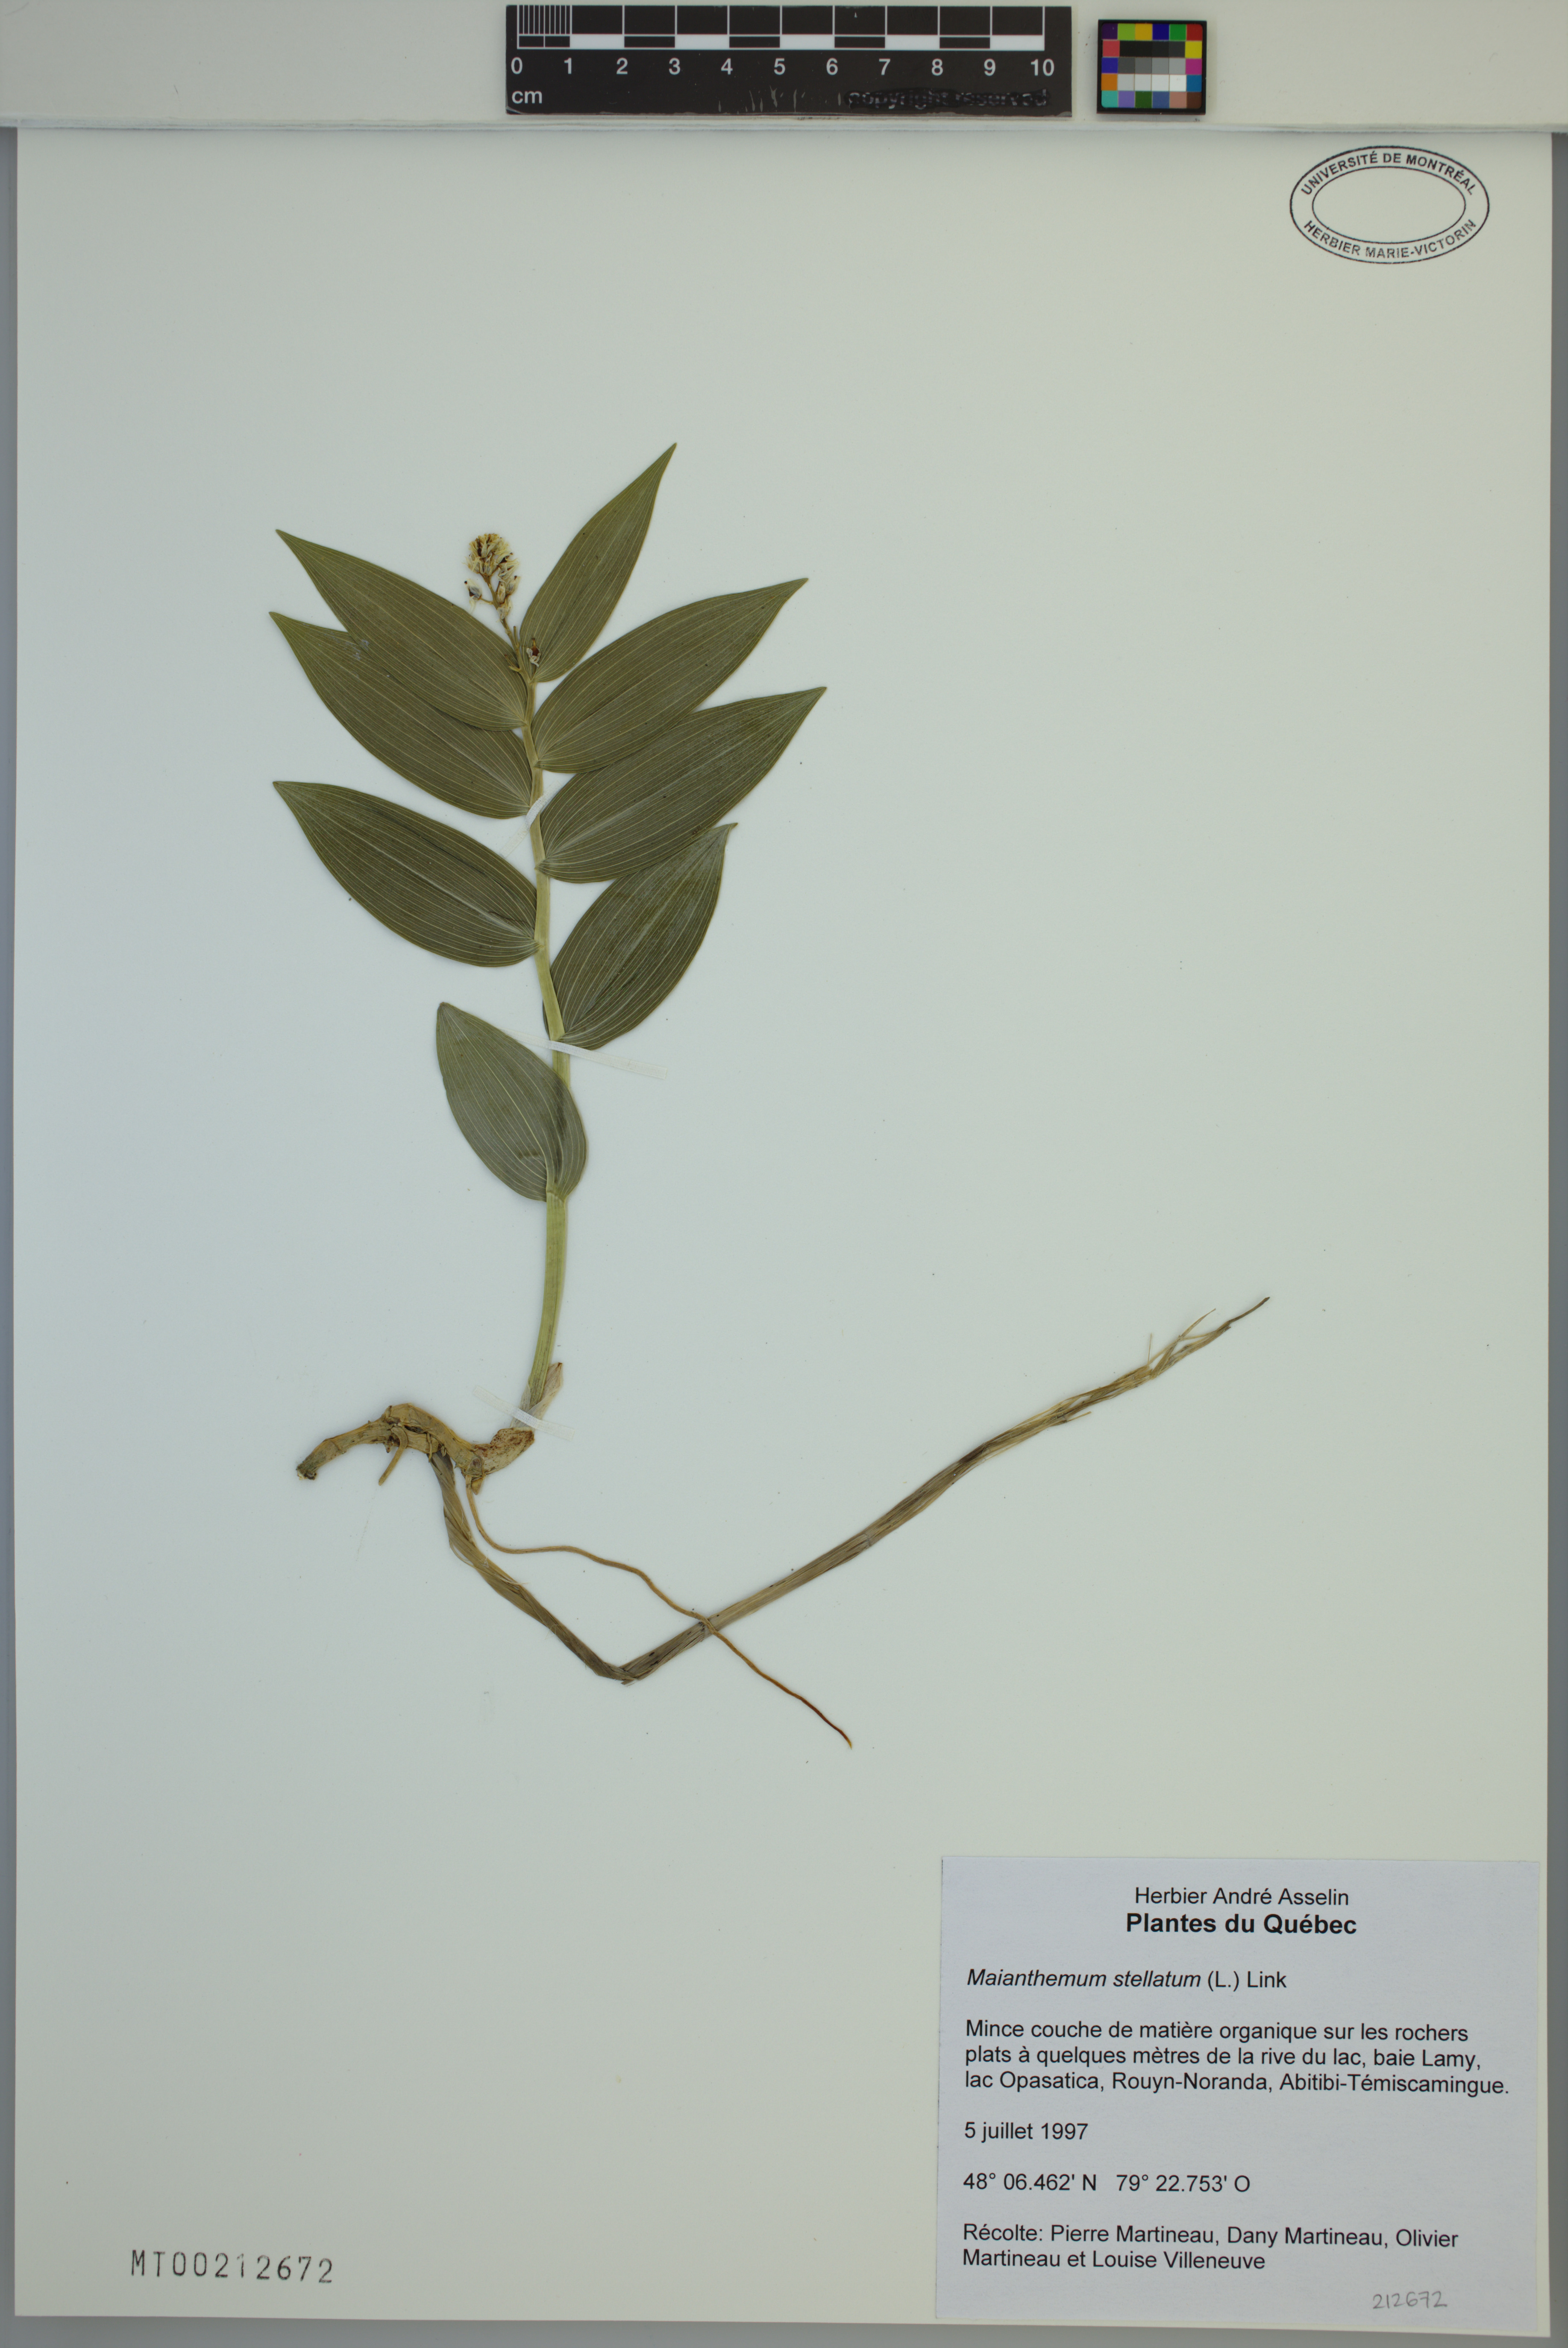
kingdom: Plantae
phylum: Tracheophyta
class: Liliopsida
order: Asparagales
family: Asparagaceae
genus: Maianthemum
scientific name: Maianthemum stellatum
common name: Little false solomon's seal
